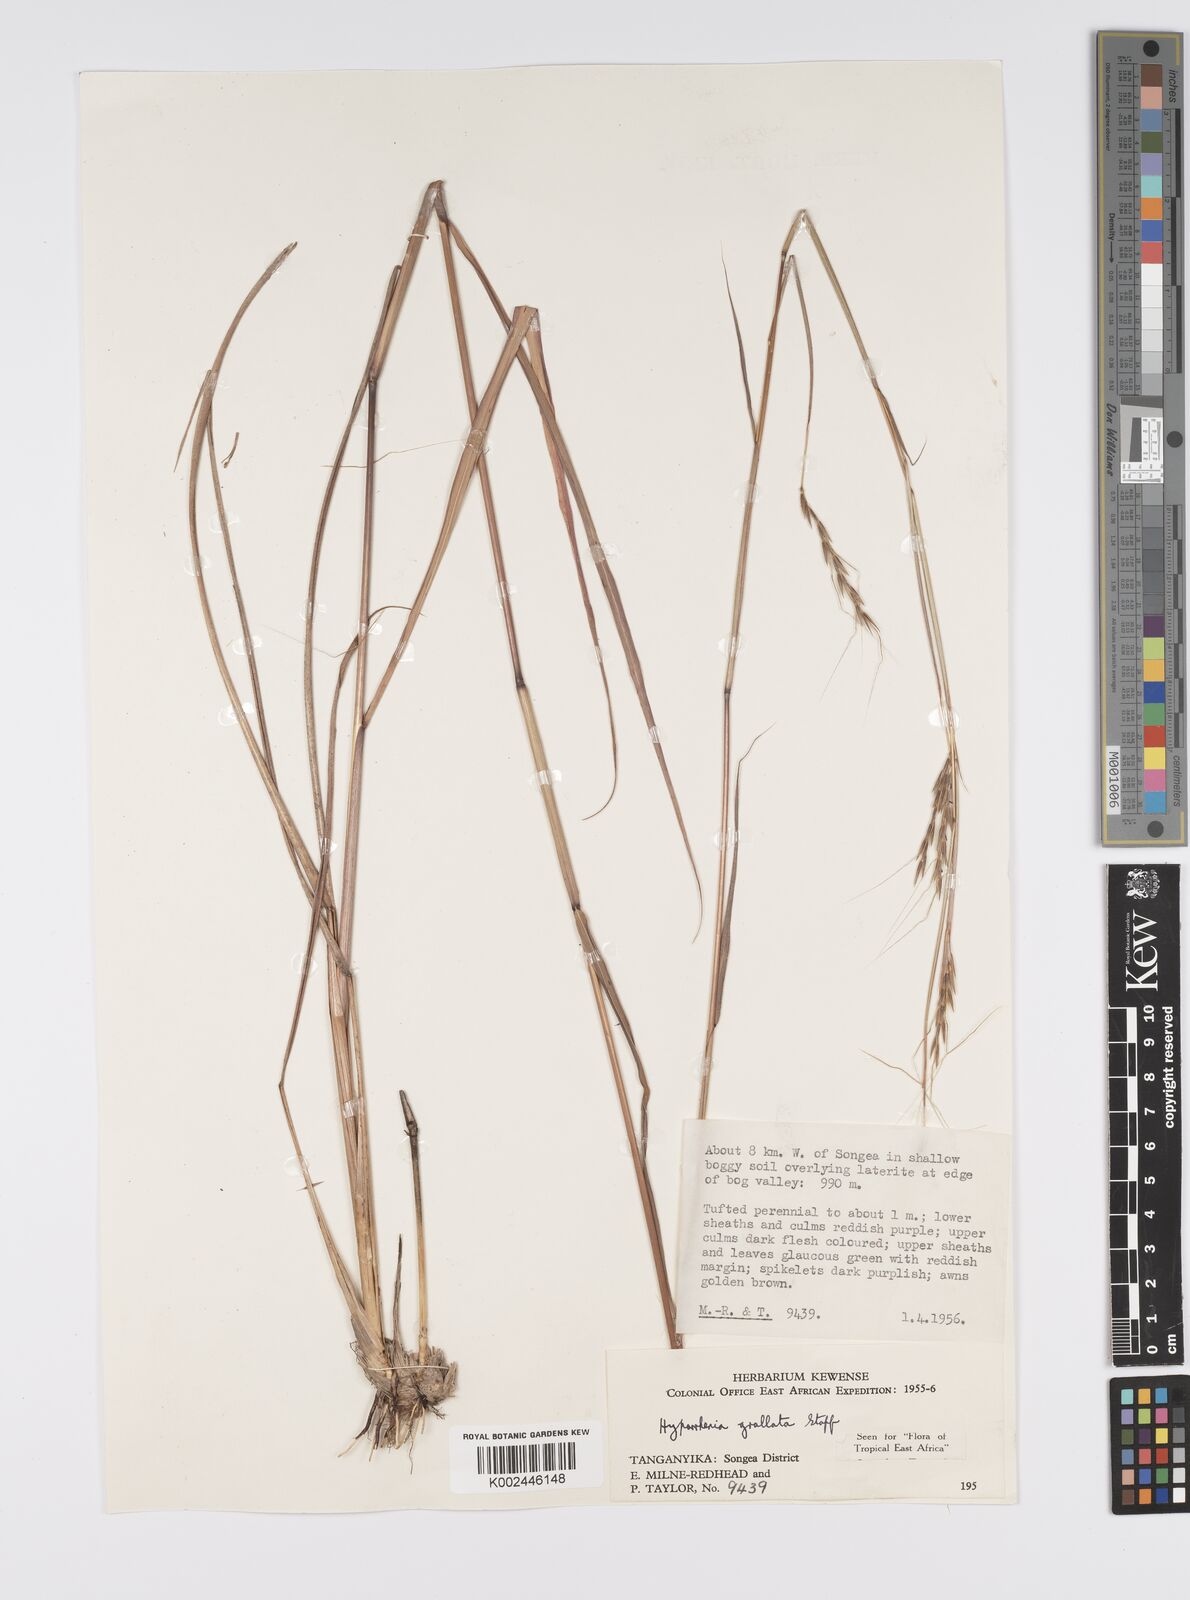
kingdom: Plantae
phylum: Tracheophyta
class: Liliopsida
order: Poales
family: Poaceae
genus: Elymandra
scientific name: Elymandra grallata
